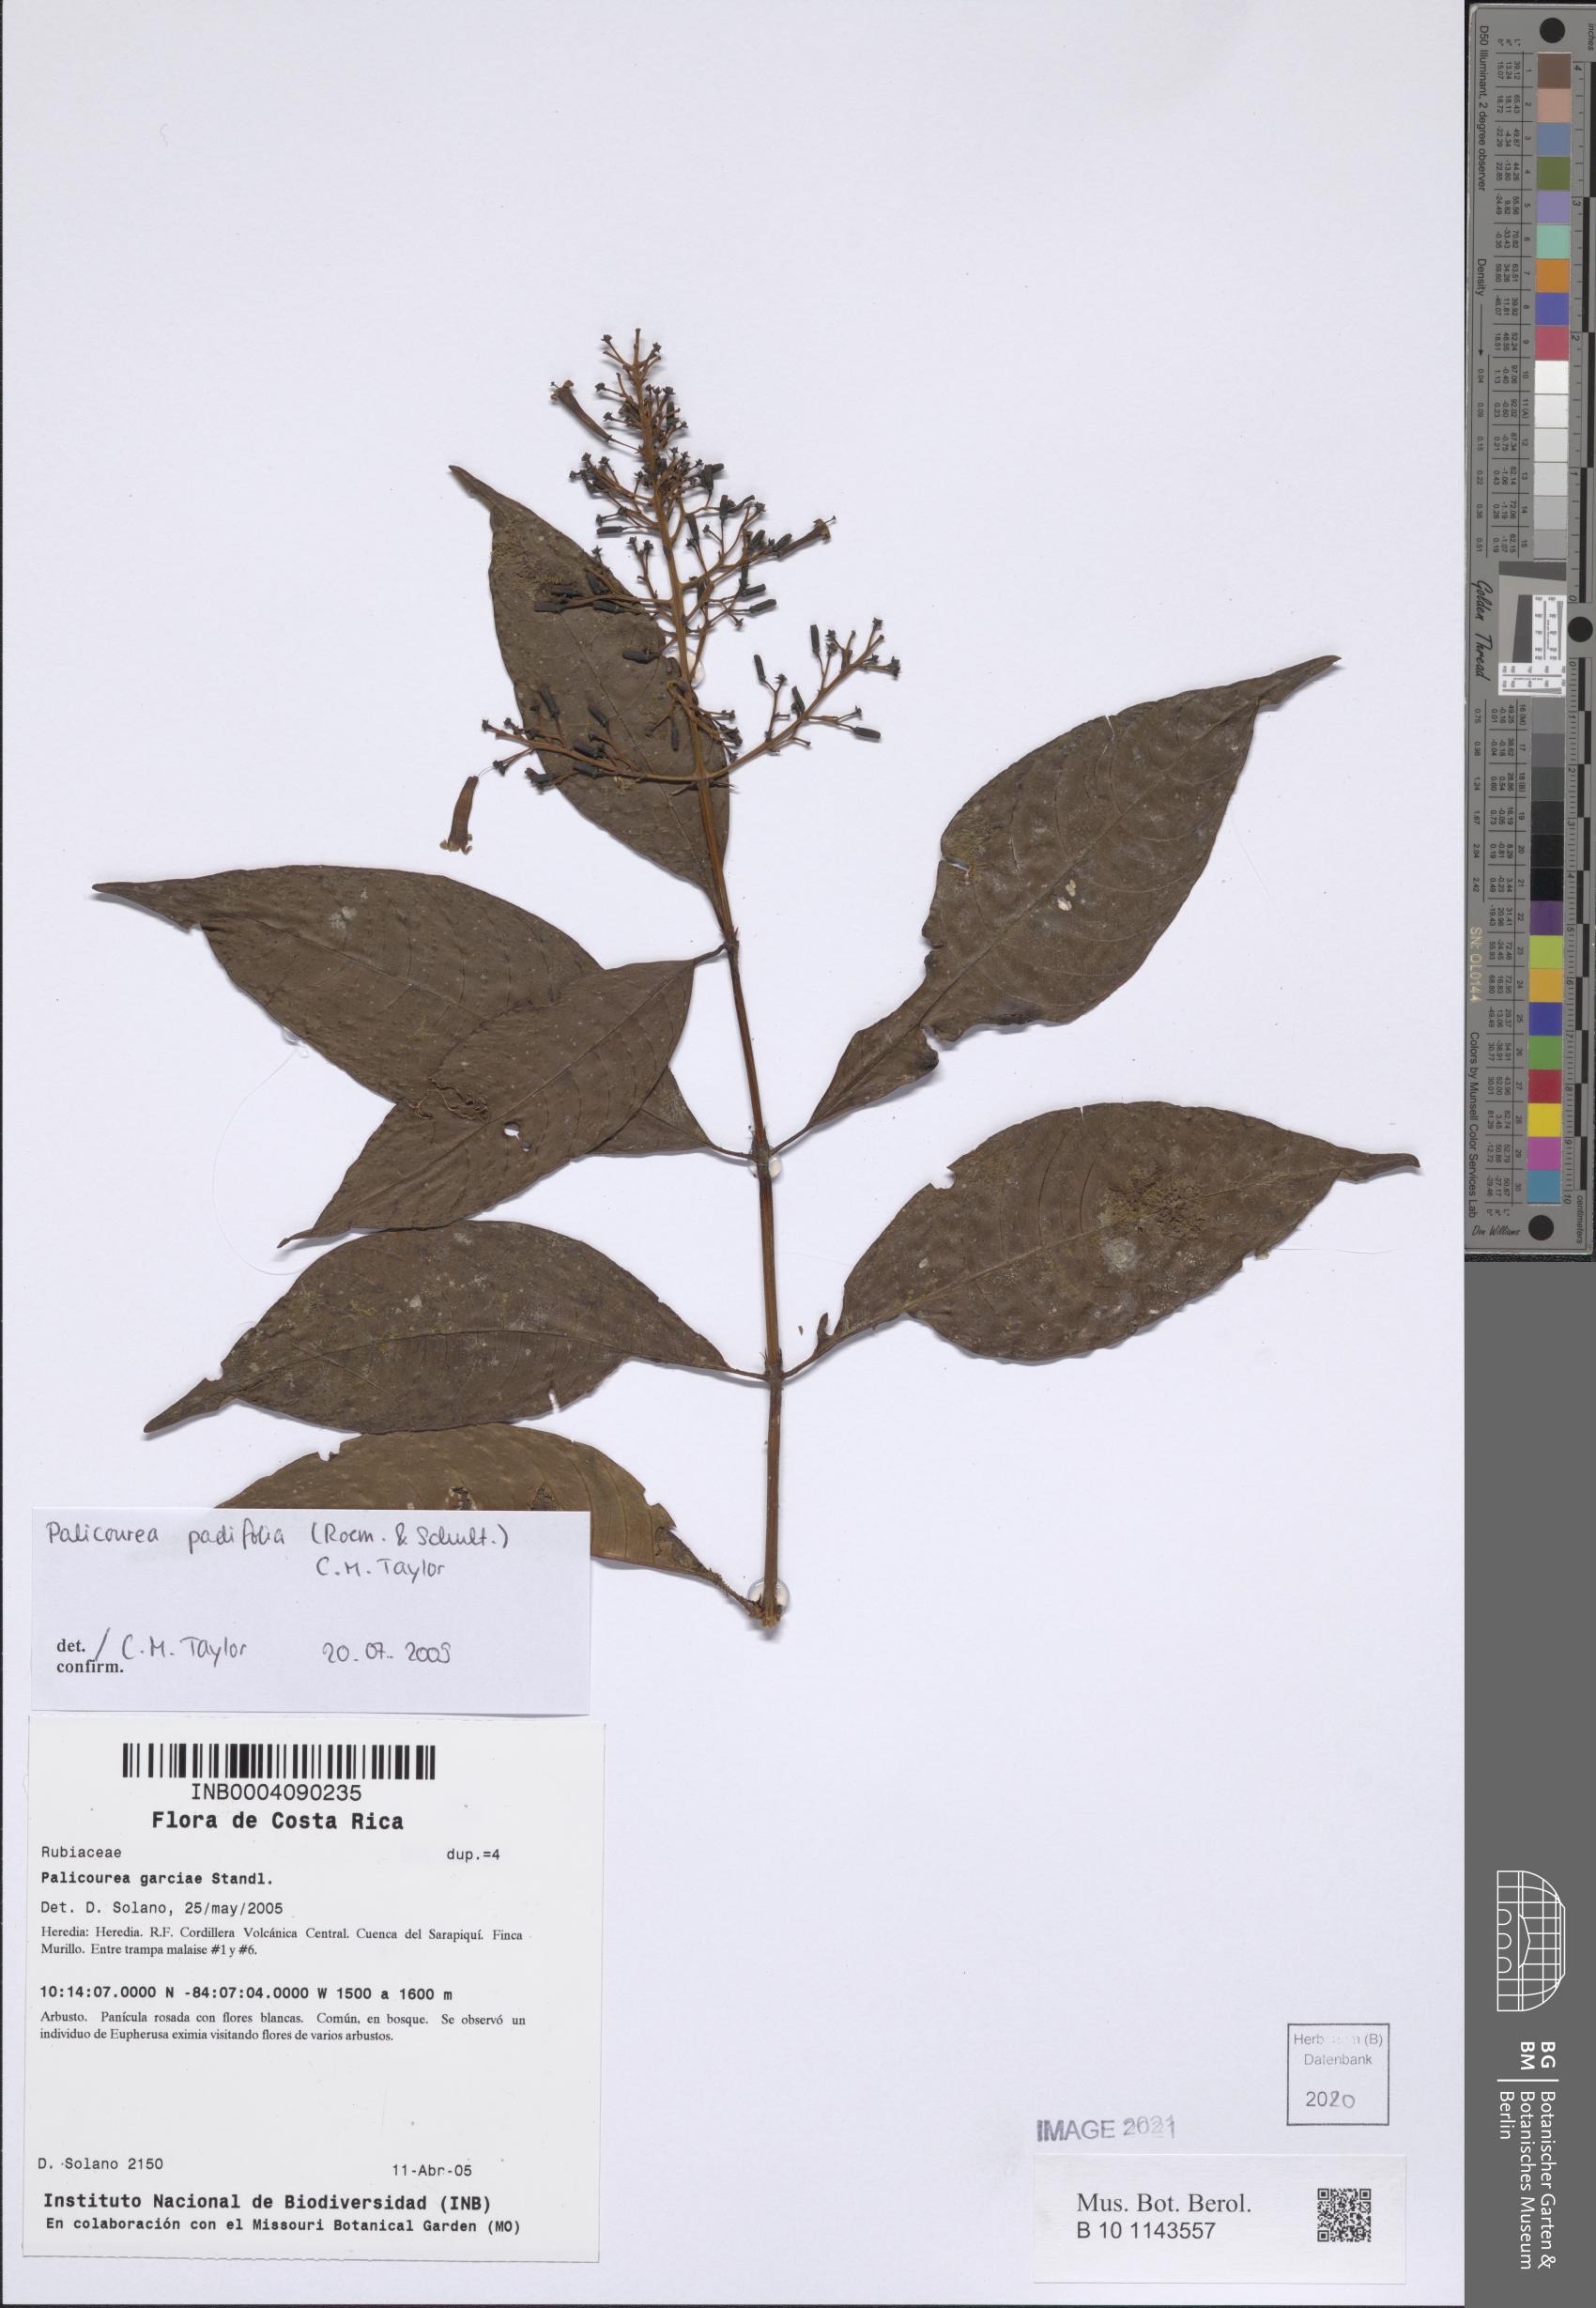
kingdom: Plantae
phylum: Tracheophyta
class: Magnoliopsida
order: Gentianales
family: Rubiaceae
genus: Palicourea
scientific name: Palicourea padifolia
